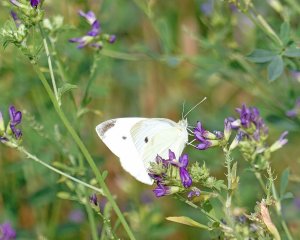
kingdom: Animalia
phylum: Arthropoda
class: Insecta
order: Lepidoptera
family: Pieridae
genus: Pieris
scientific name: Pieris rapae
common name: Cabbage White
